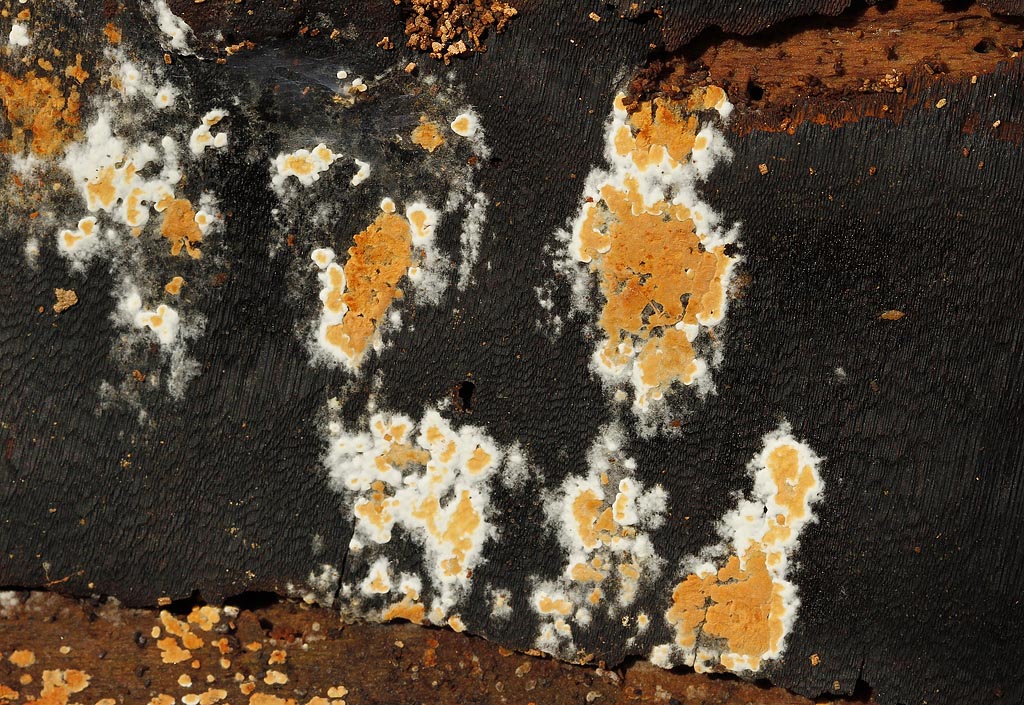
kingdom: Fungi
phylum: Basidiomycota
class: Agaricomycetes
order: Cantharellales
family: Botryobasidiaceae
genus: Botryobasidium
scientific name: Botryobasidium aureum
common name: gylden spindhinde
